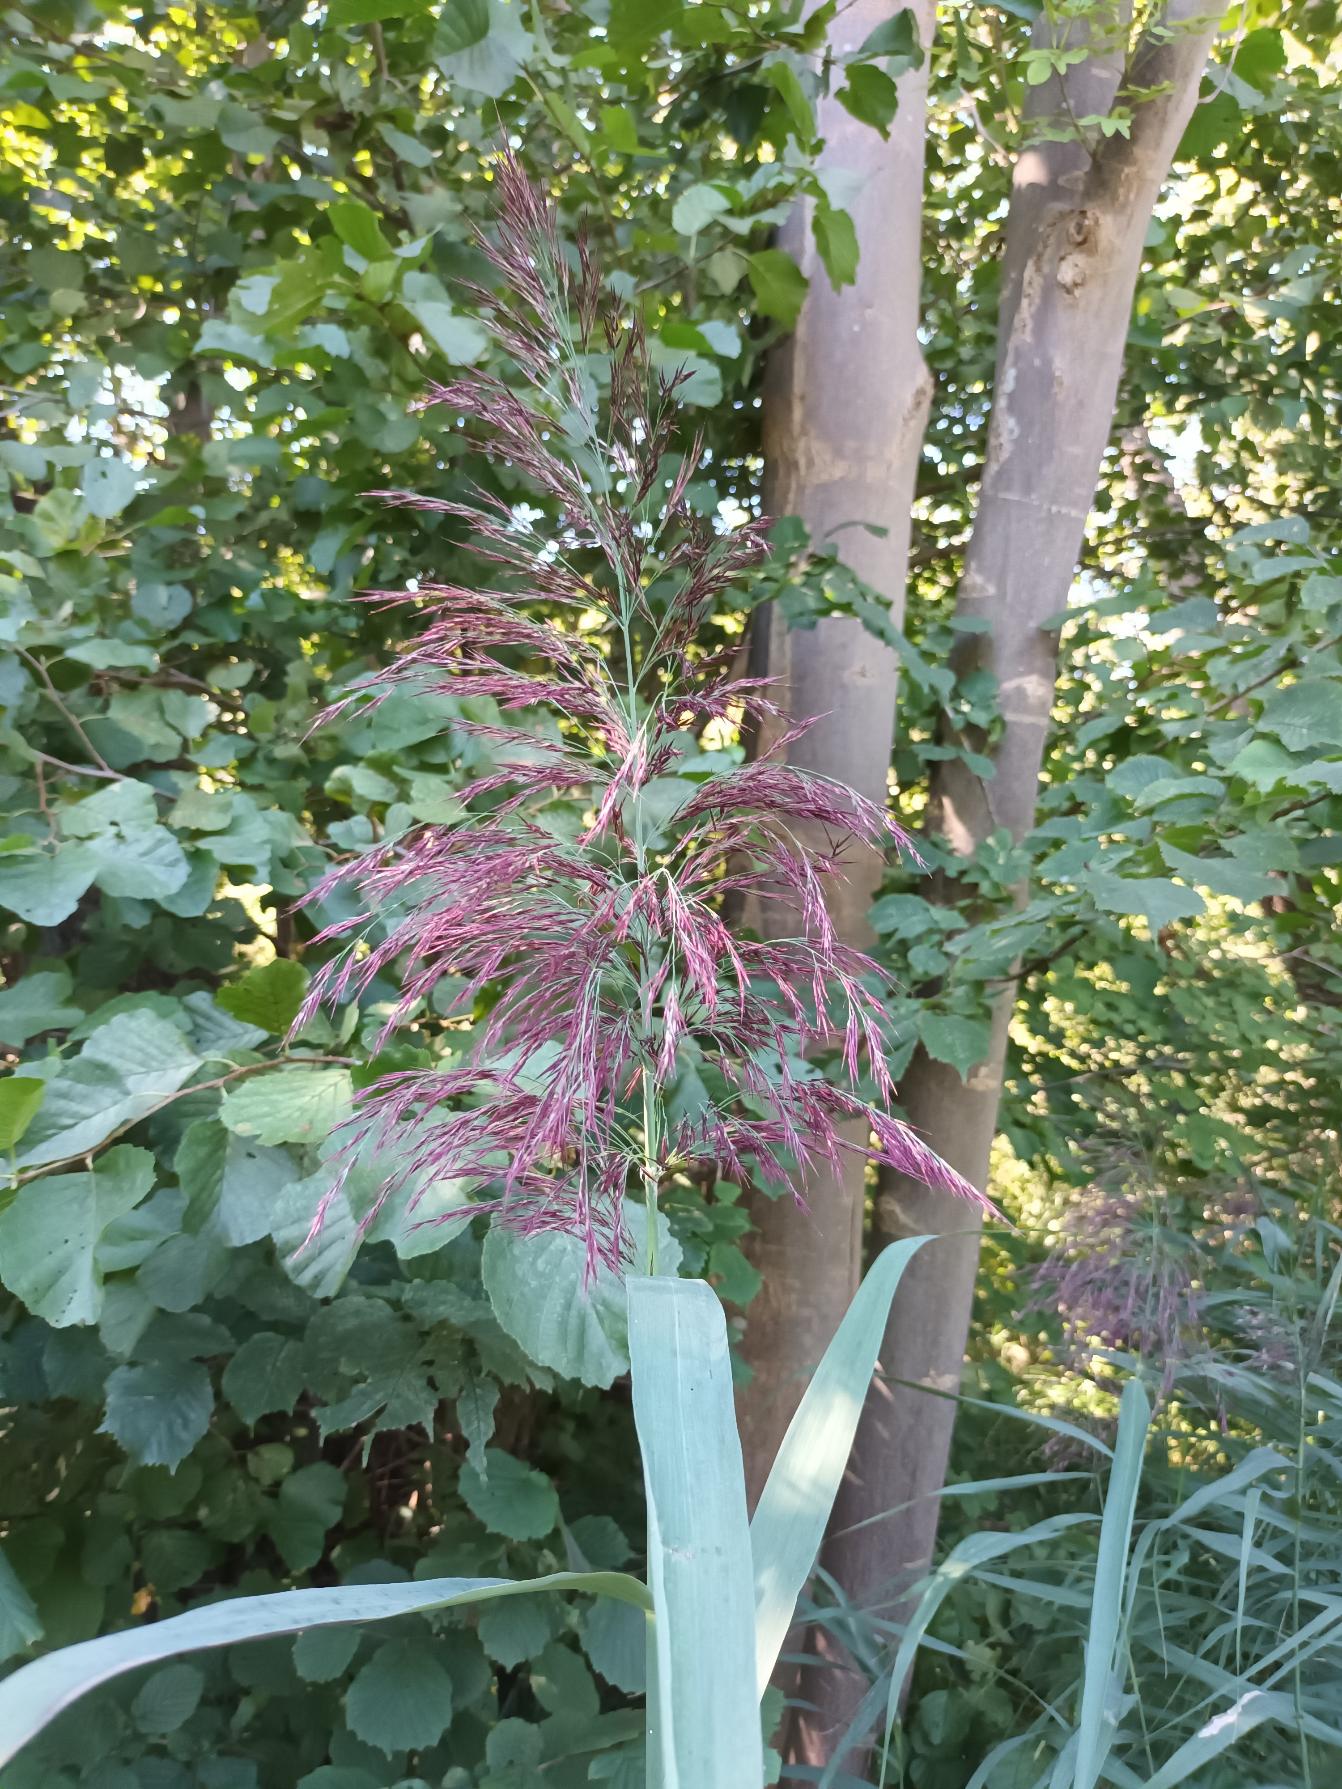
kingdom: Plantae
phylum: Tracheophyta
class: Liliopsida
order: Poales
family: Poaceae
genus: Phragmites
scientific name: Phragmites australis
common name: Tagrør
